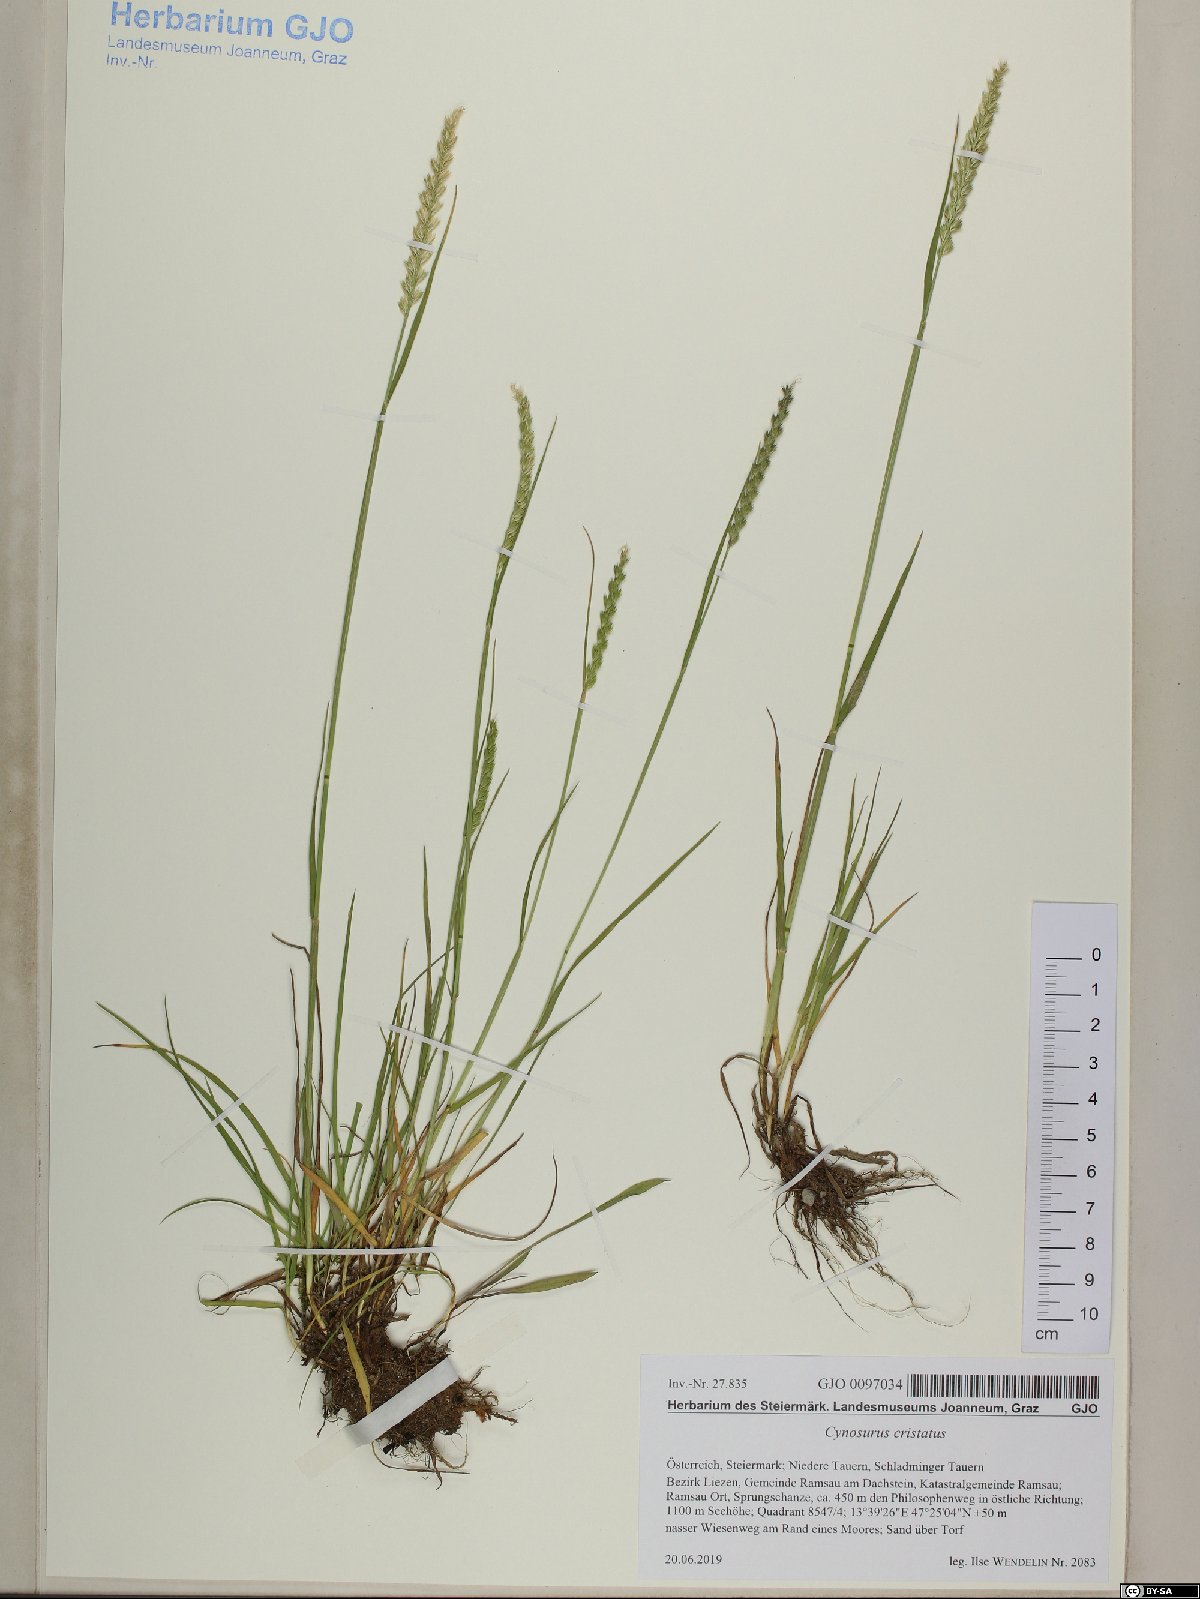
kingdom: Plantae
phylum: Tracheophyta
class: Liliopsida
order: Poales
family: Poaceae
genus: Cynosurus
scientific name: Cynosurus cristatus
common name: Crested dog's-tail
